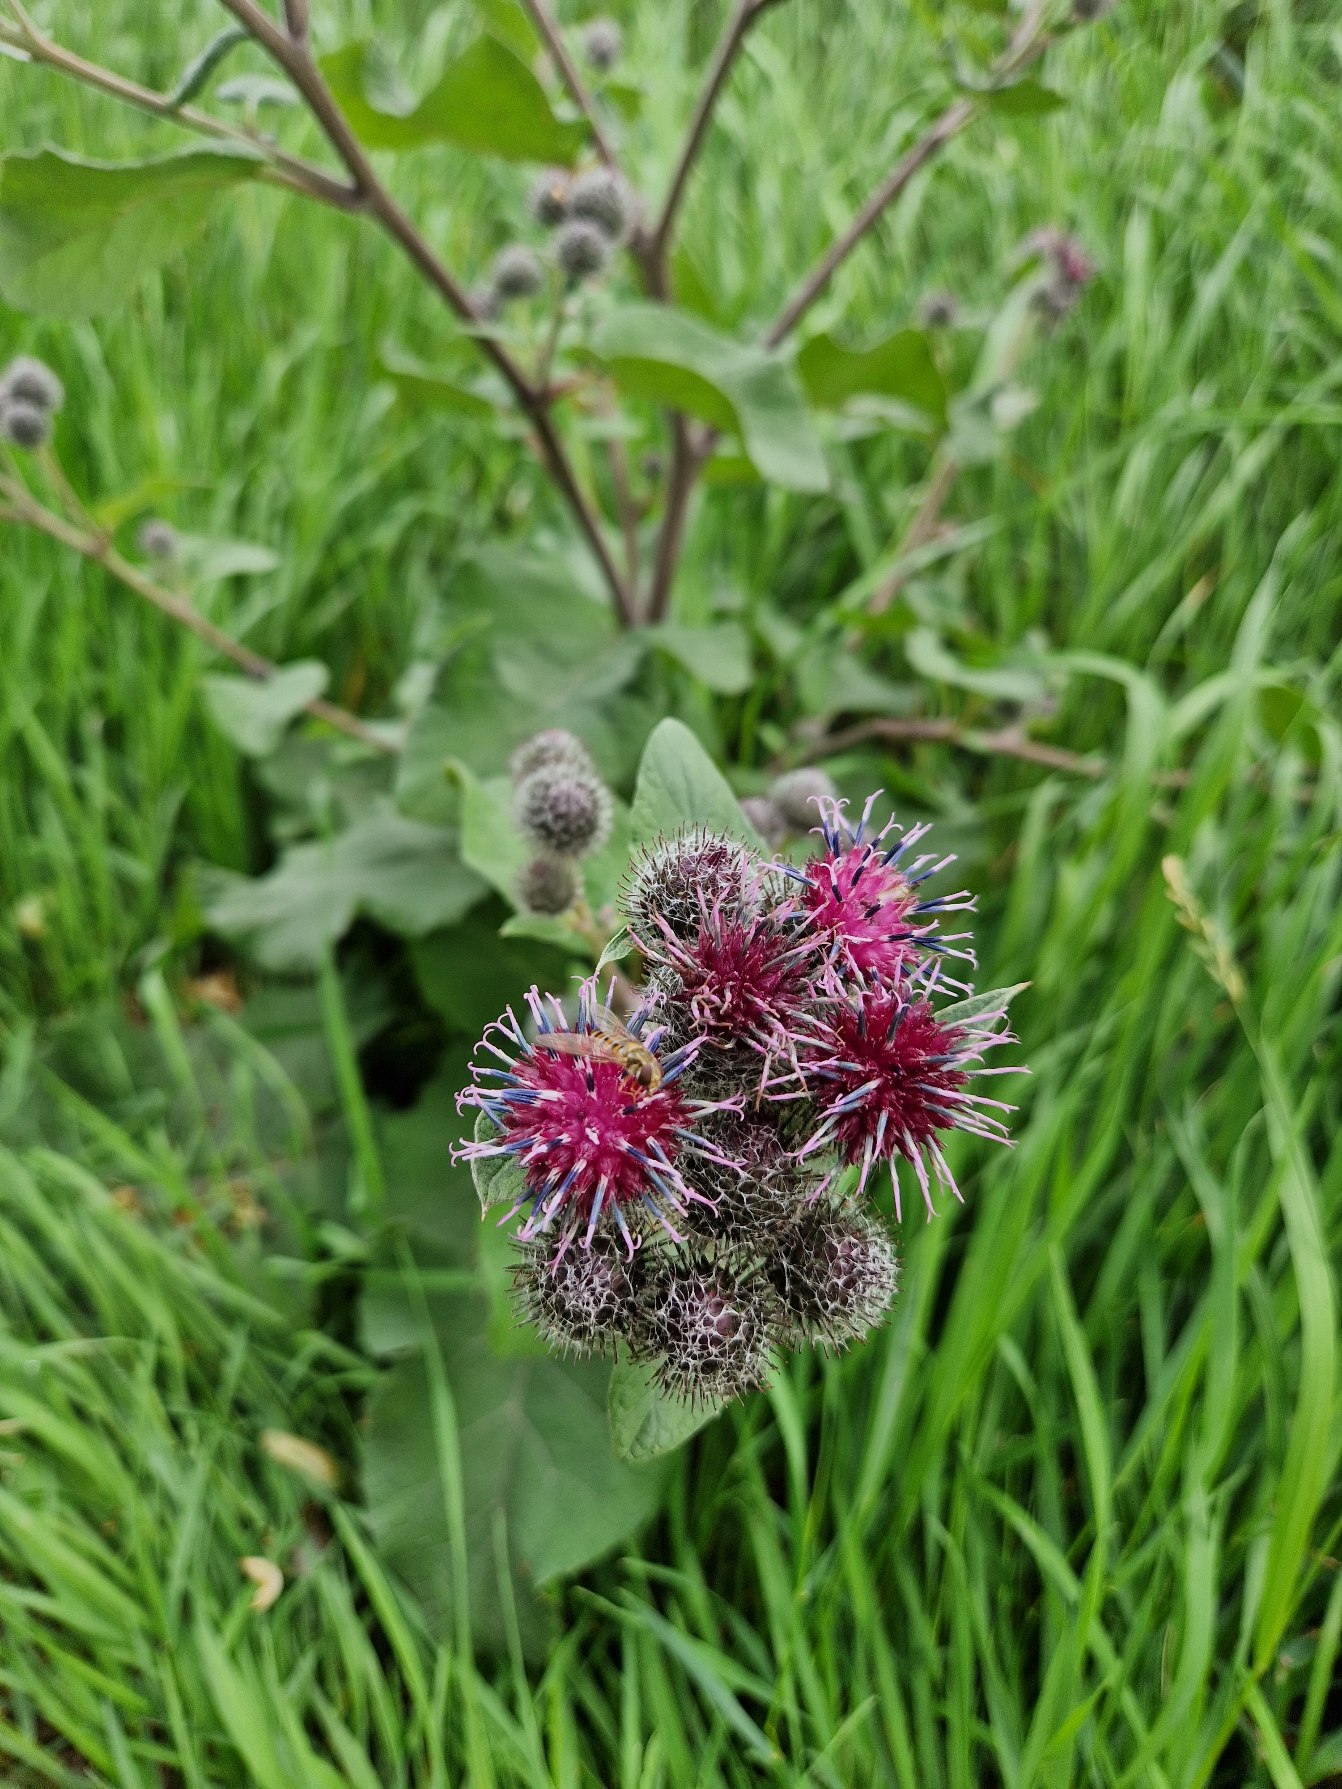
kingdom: Plantae
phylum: Tracheophyta
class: Magnoliopsida
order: Asterales
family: Asteraceae
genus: Arctium
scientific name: Arctium tomentosum
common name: Filtet burre
